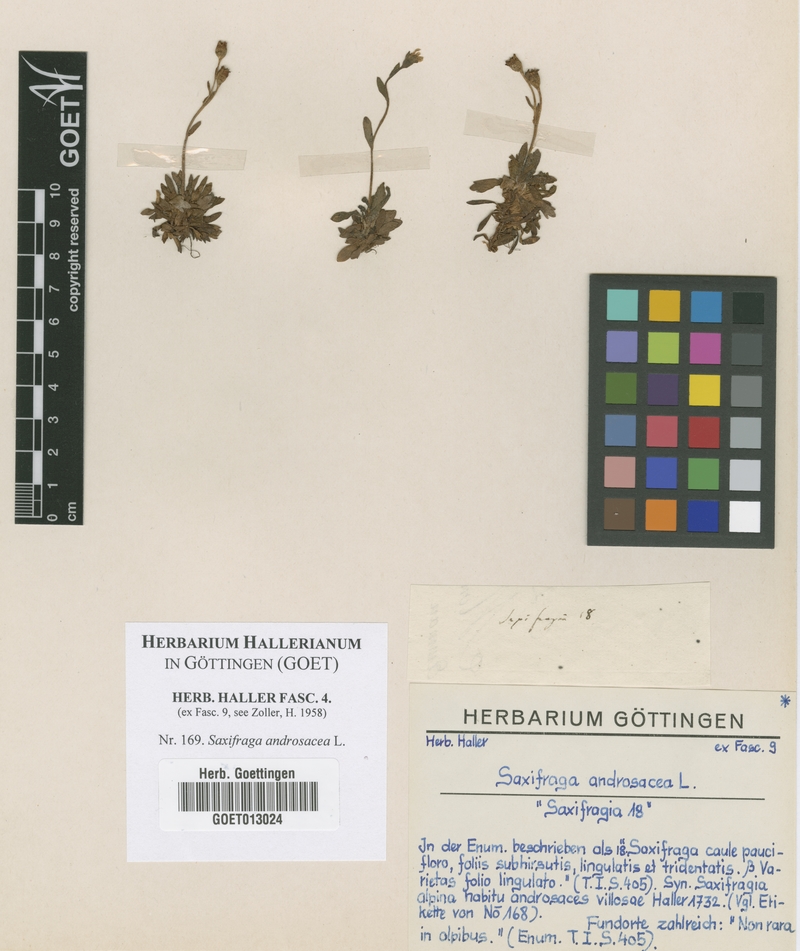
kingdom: Plantae
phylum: Tracheophyta
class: Magnoliopsida
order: Saxifragales
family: Saxifragaceae
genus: Saxifraga
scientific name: Saxifraga androsacea
